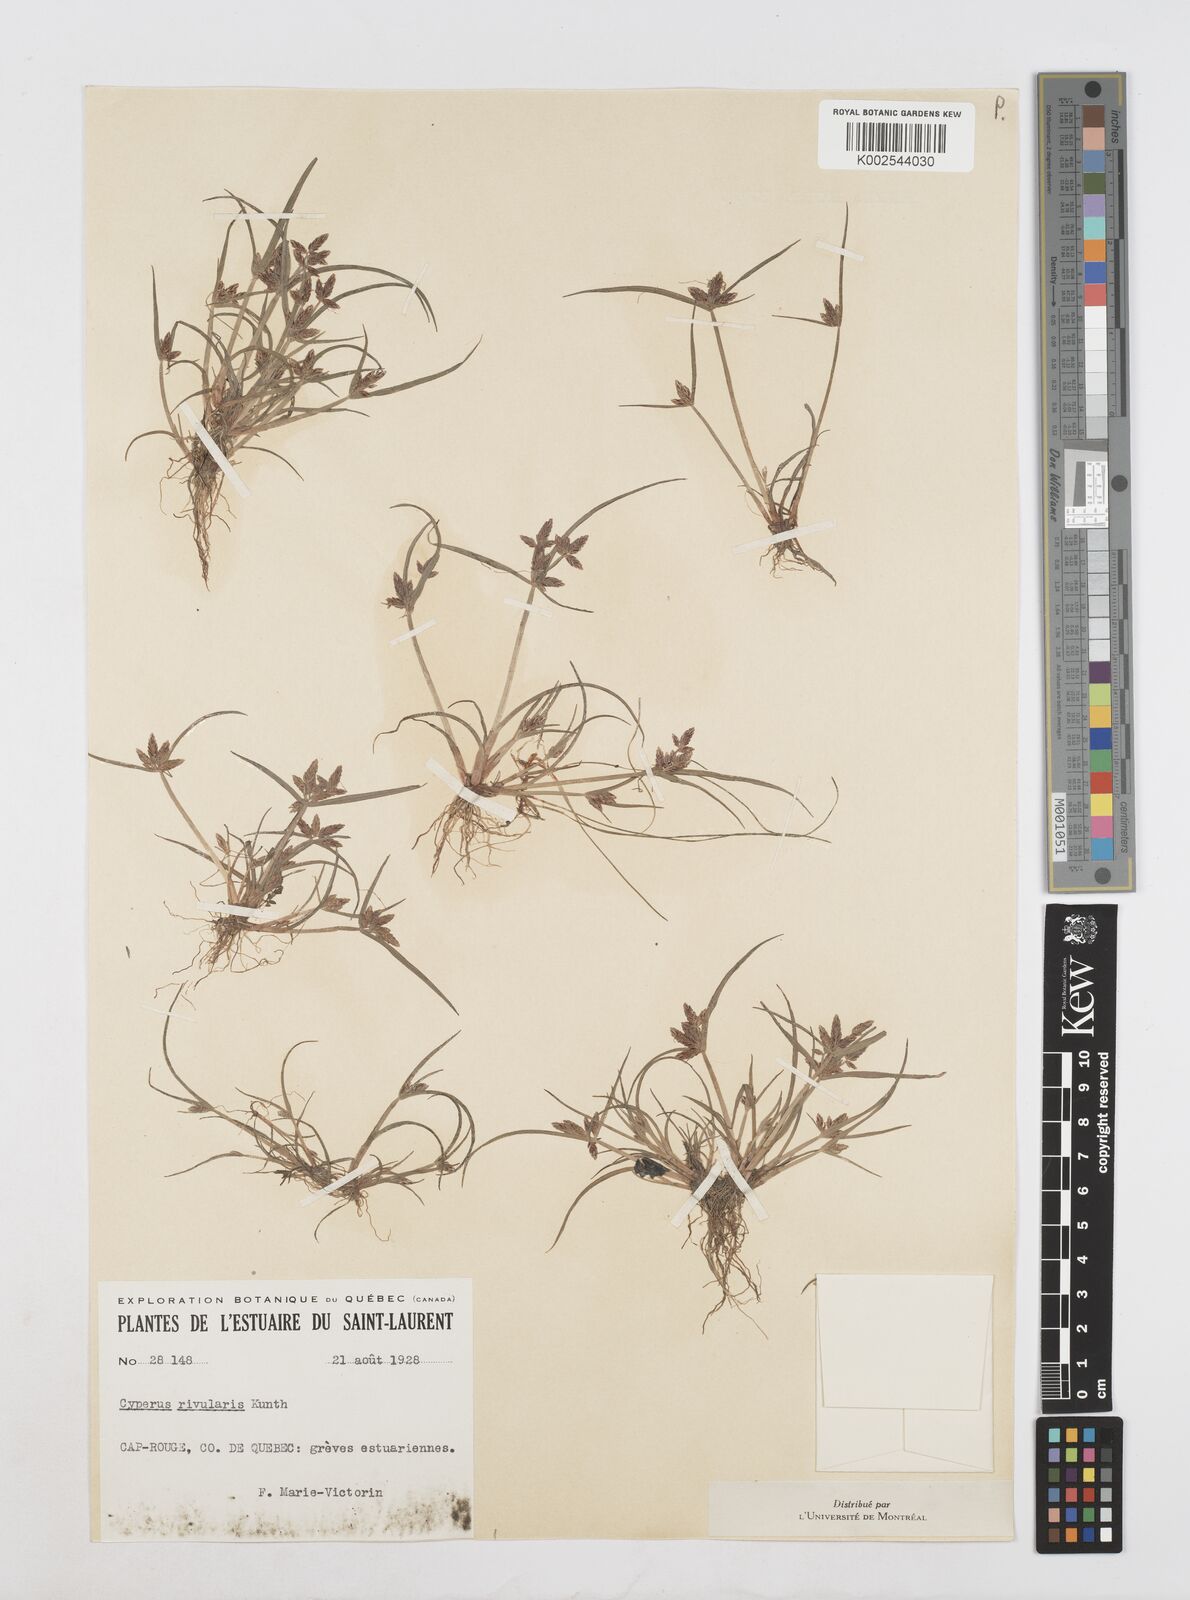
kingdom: Plantae
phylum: Tracheophyta
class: Liliopsida
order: Poales
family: Cyperaceae
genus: Cyperus
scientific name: Cyperus bipartitus
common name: Brook flatsedge
